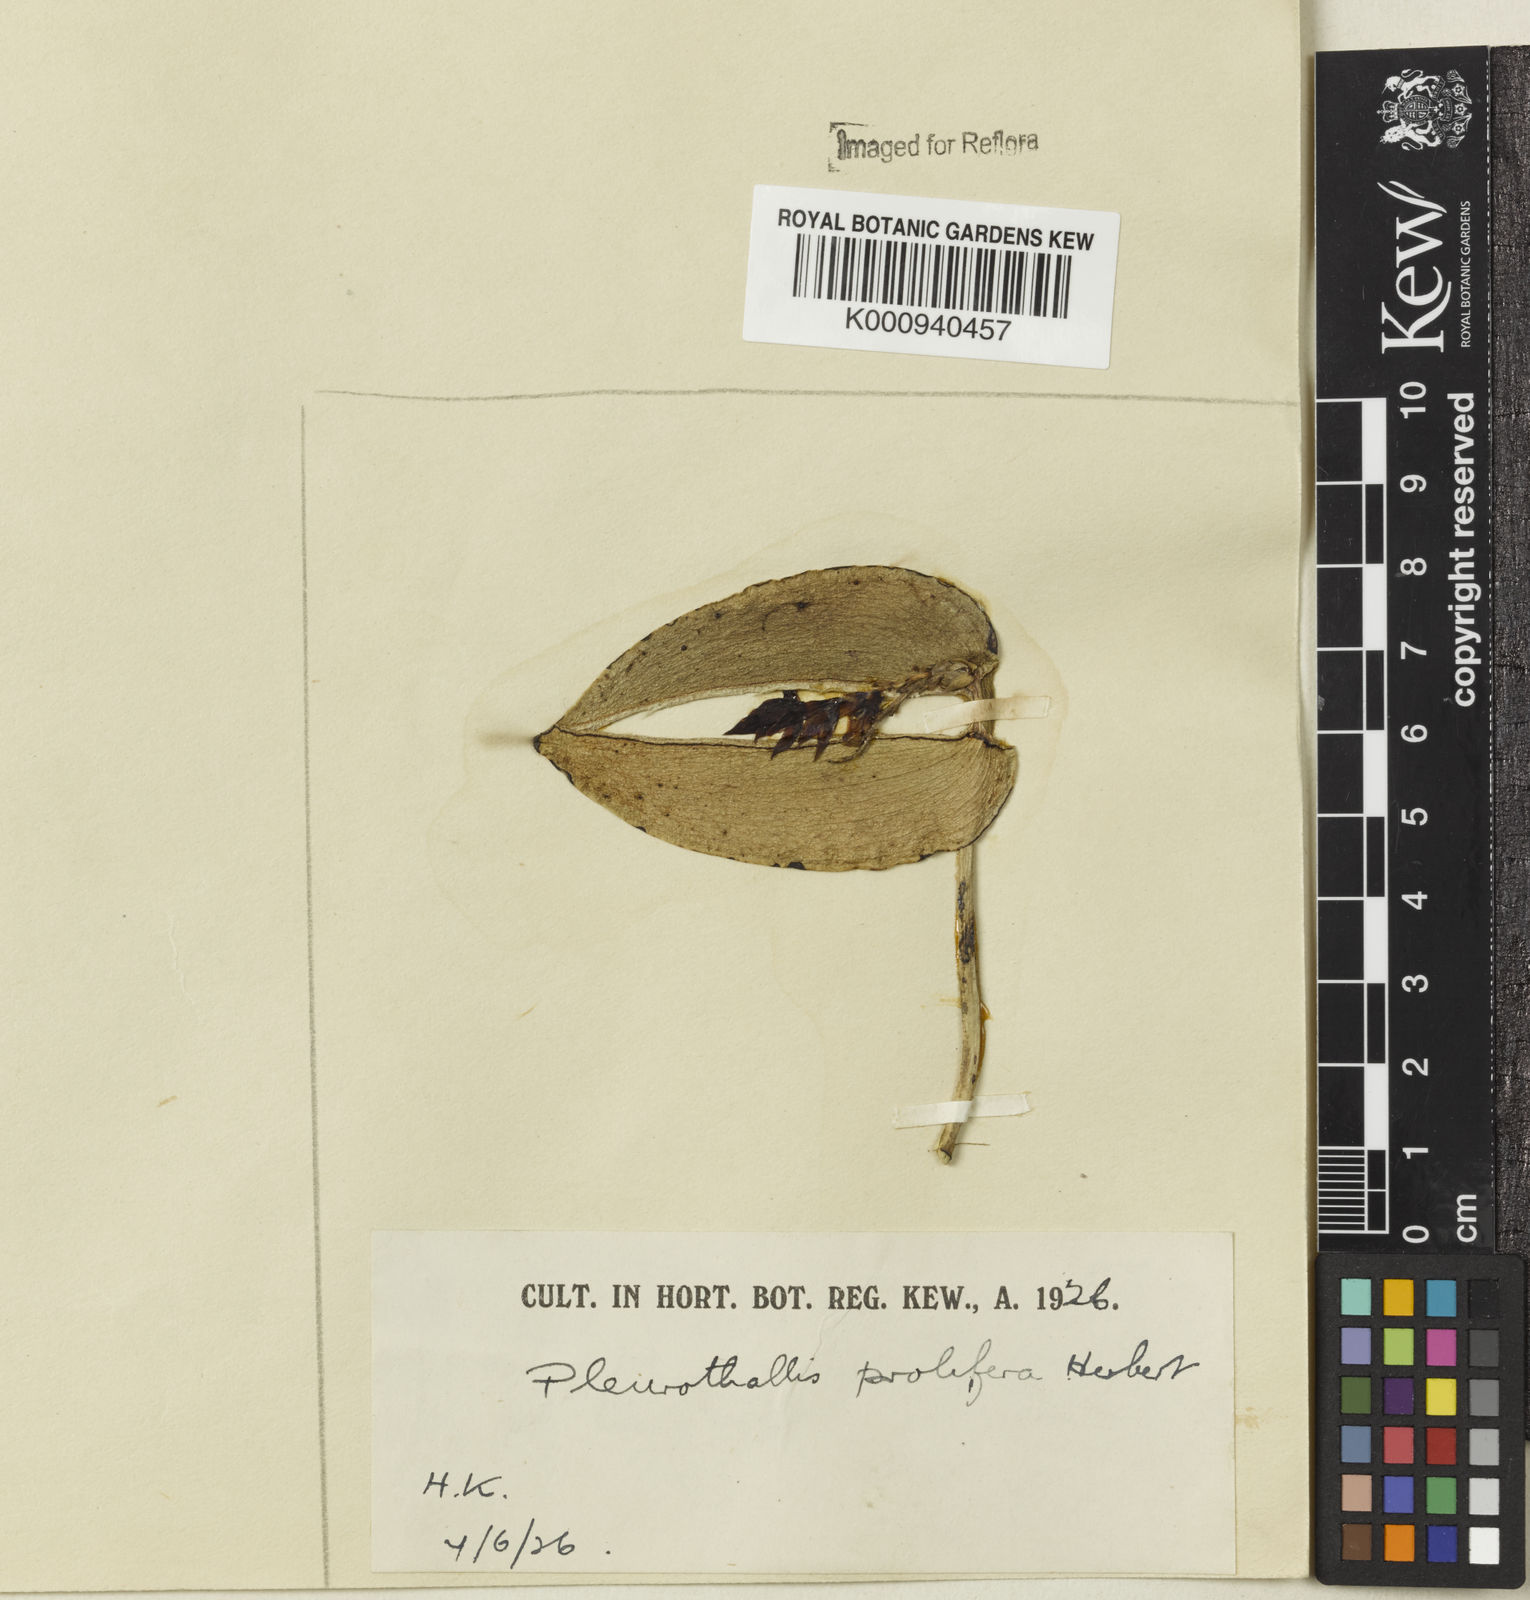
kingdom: Plantae
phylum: Tracheophyta
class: Liliopsida
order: Asparagales
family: Orchidaceae
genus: Acianthera
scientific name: Acianthera prolifera
